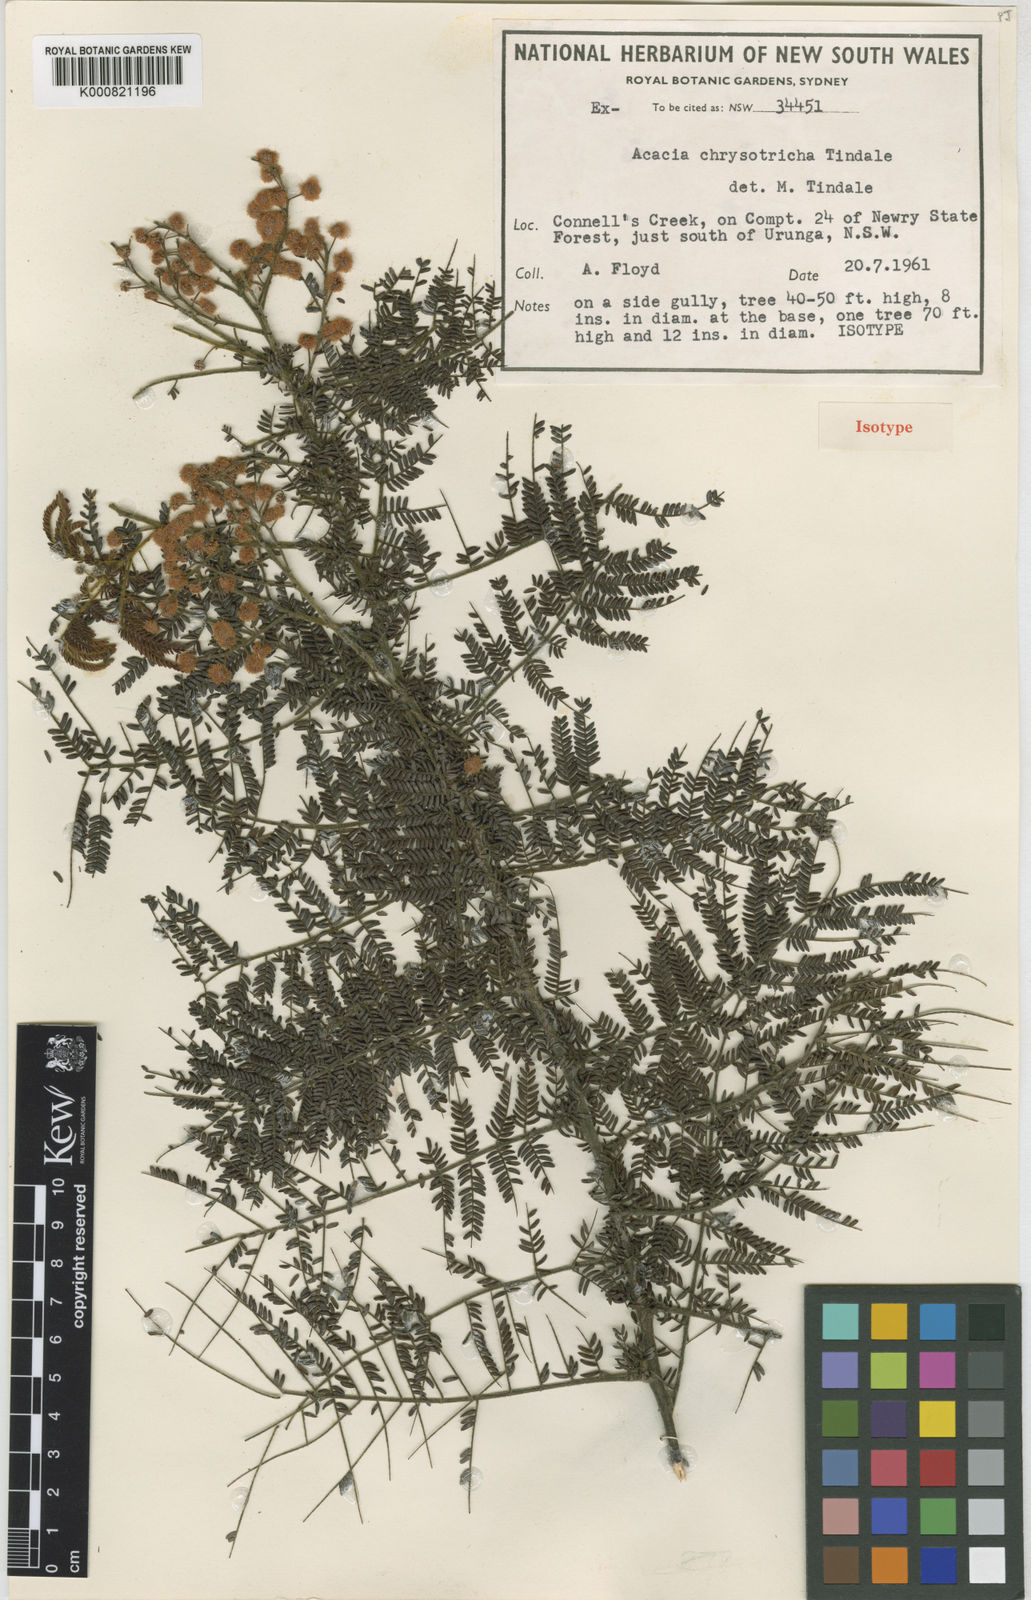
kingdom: Plantae
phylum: Tracheophyta
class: Magnoliopsida
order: Fabales
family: Fabaceae
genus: Acacia
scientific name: Acacia chrysotricha
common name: Bellinger river wattle
